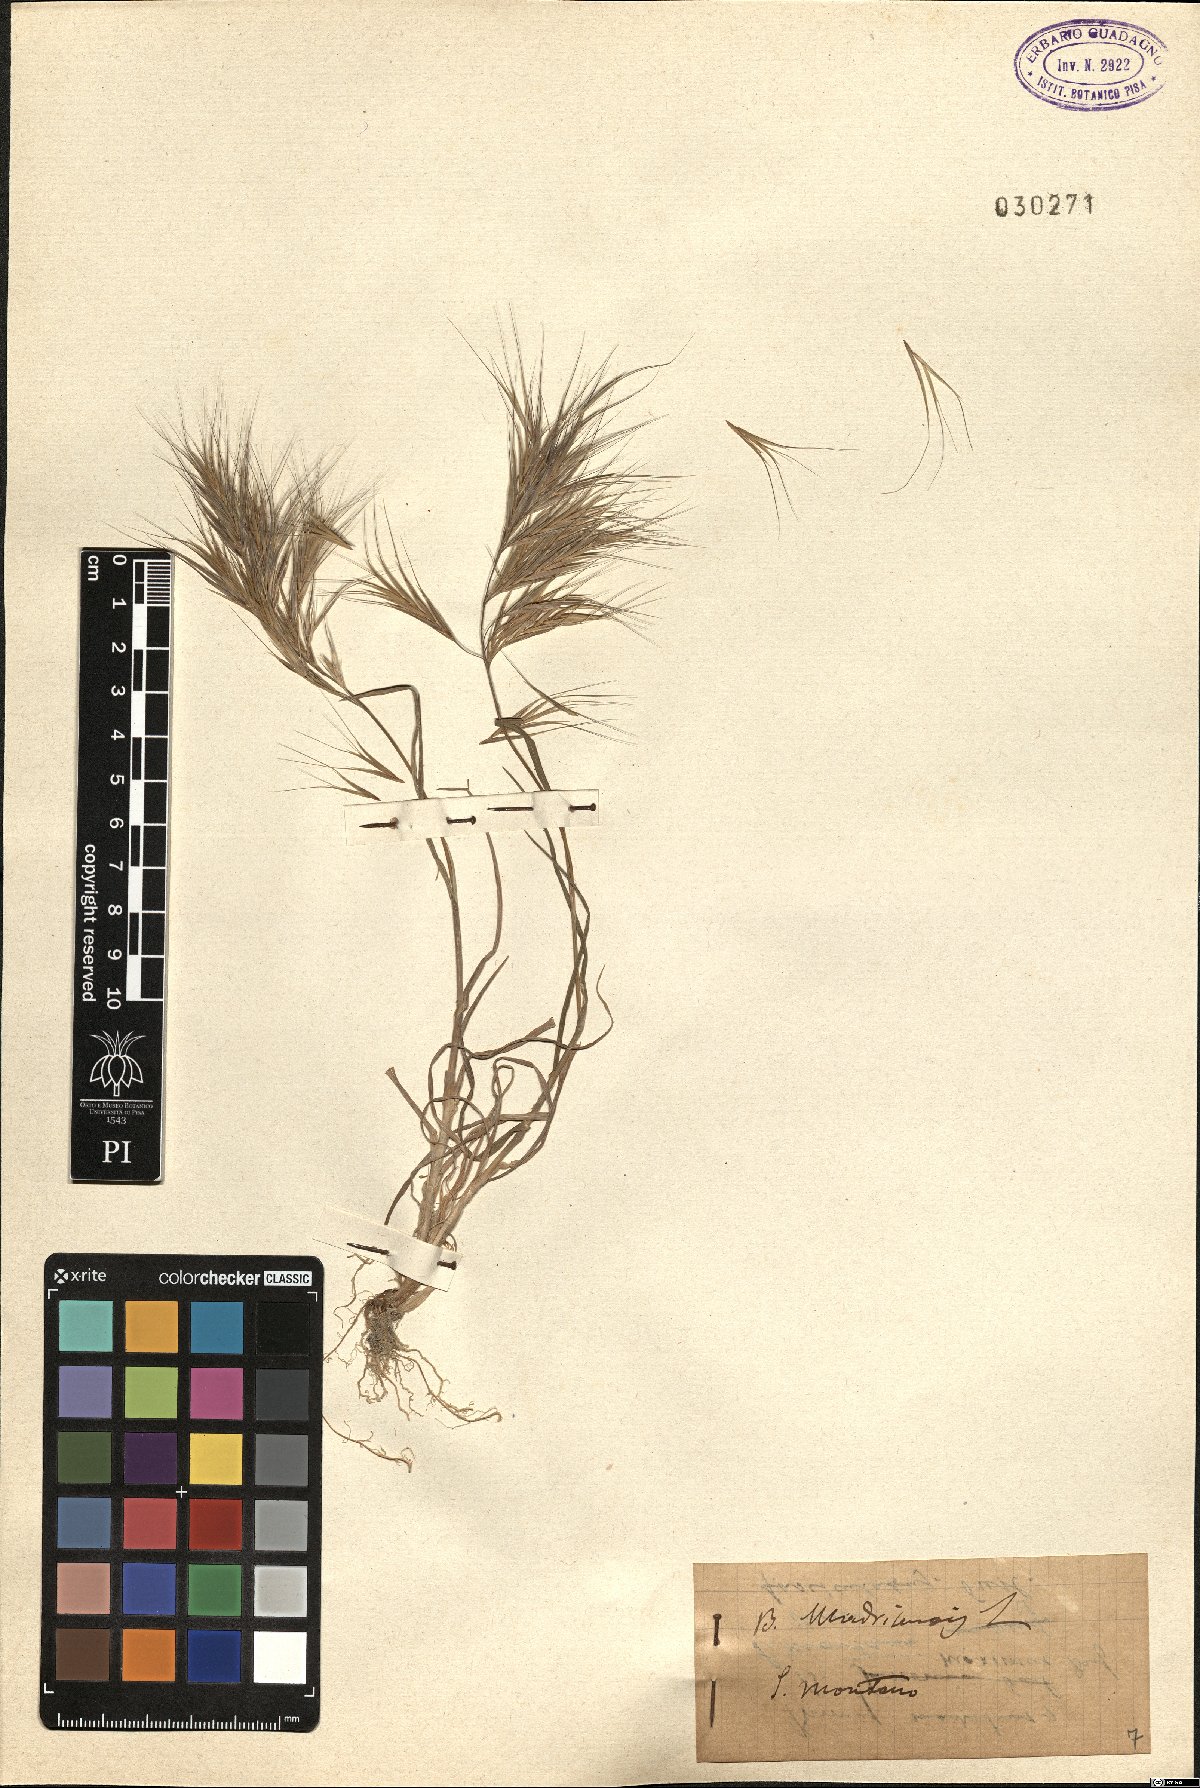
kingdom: Plantae
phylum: Tracheophyta
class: Liliopsida
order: Poales
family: Poaceae
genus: Bromus
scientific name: Bromus madritensis
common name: Compact brome
